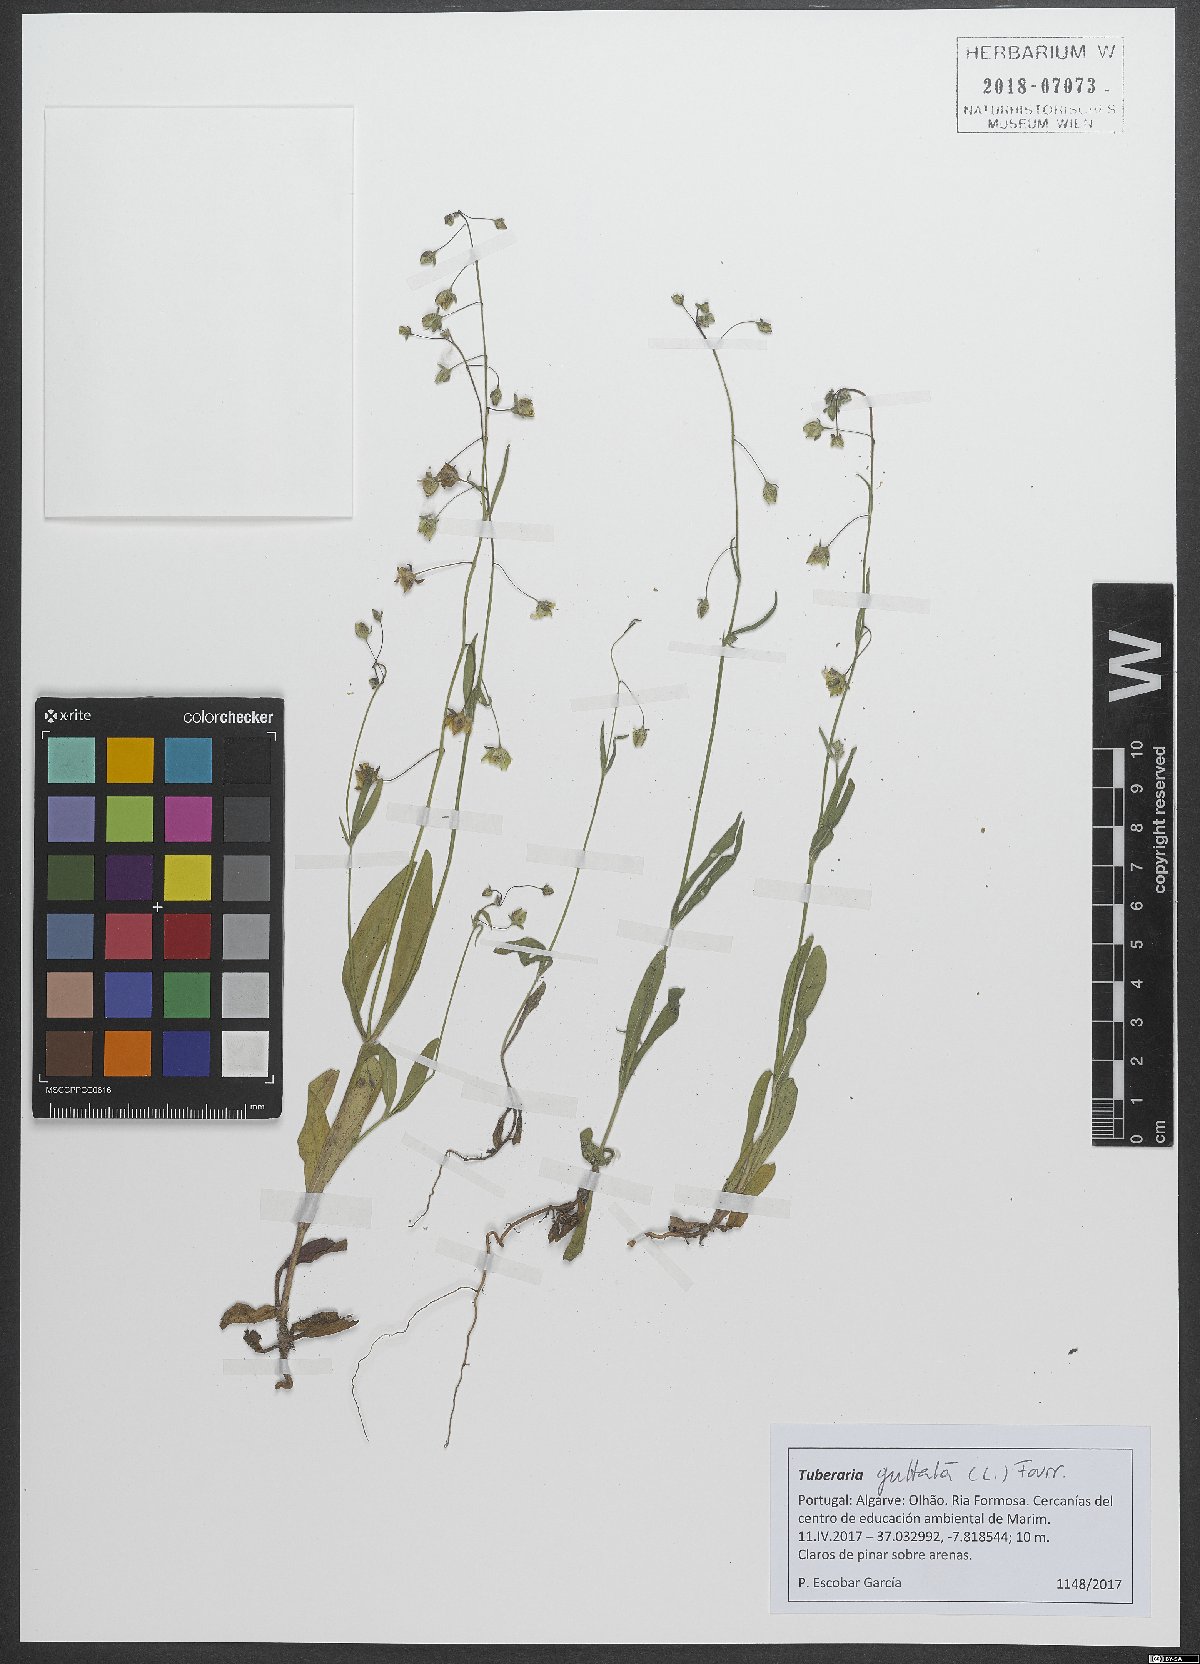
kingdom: Plantae
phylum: Tracheophyta
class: Magnoliopsida
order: Malvales
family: Cistaceae
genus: Tuberaria
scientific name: Tuberaria guttata
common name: Spotted rock-rose
